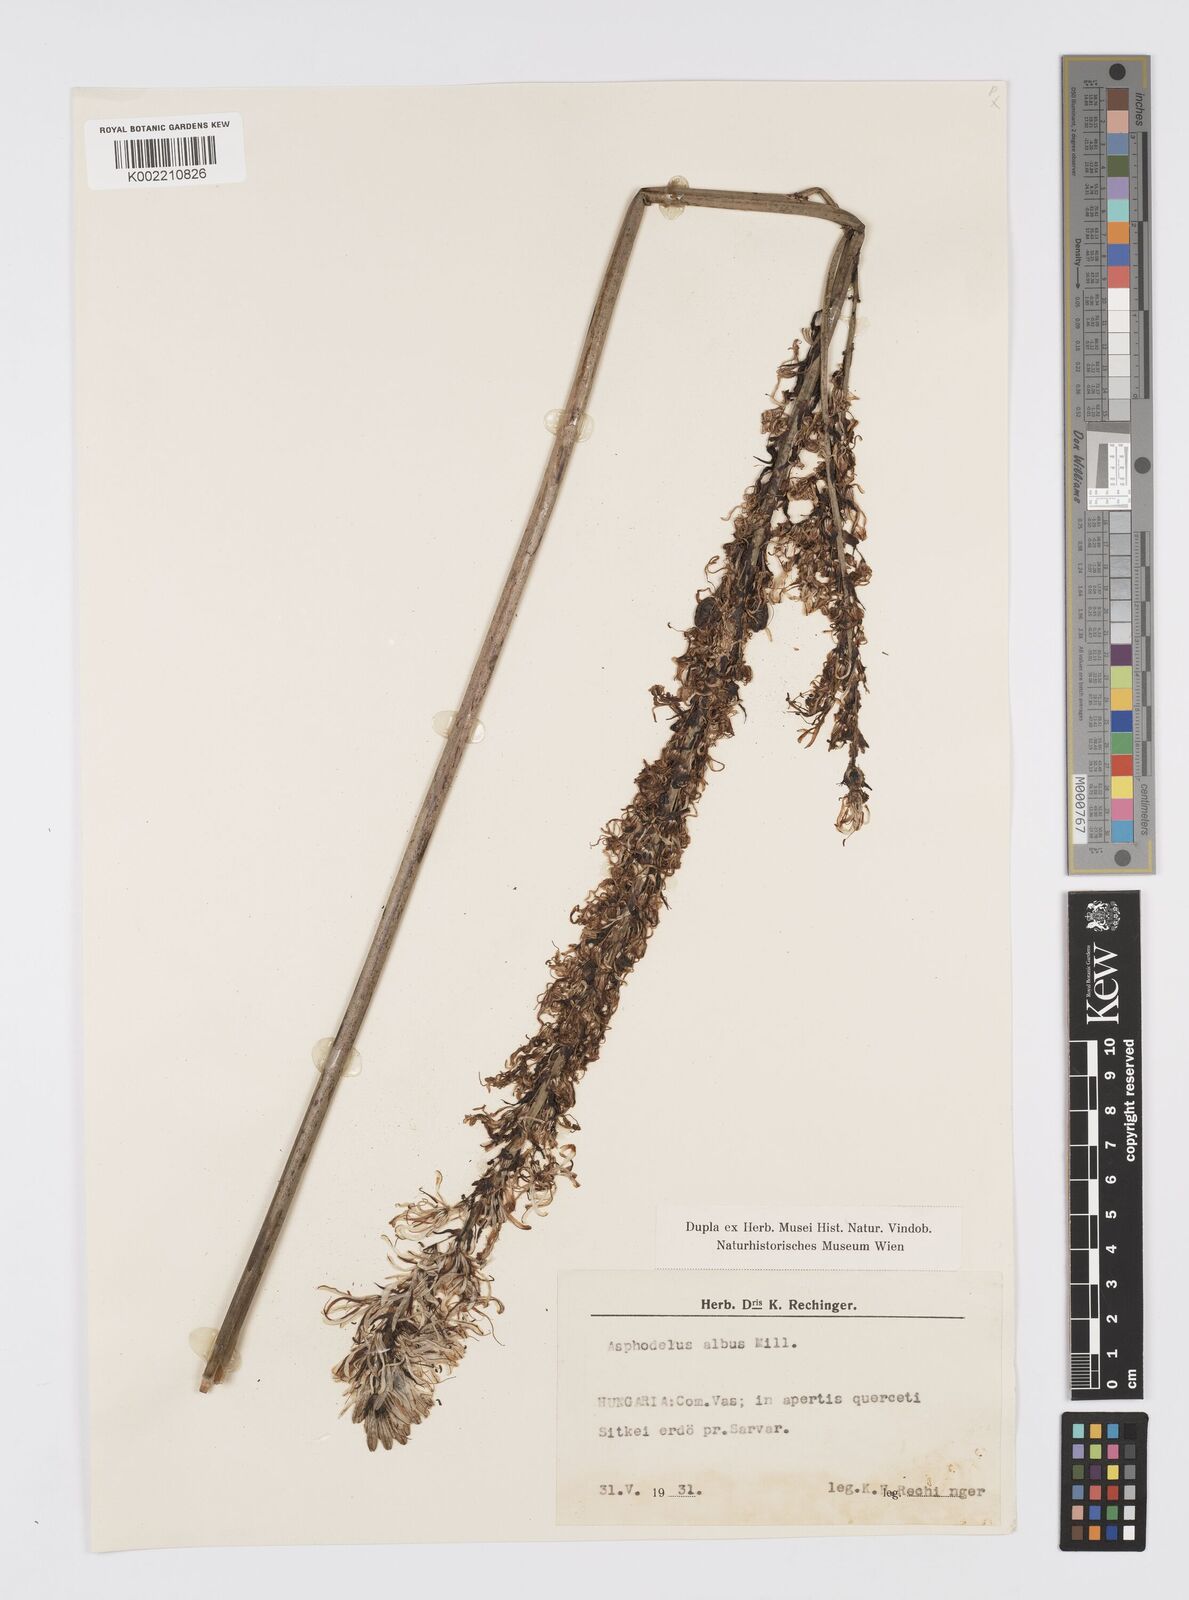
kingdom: Plantae
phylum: Tracheophyta
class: Liliopsida
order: Asparagales
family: Asphodelaceae
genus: Asphodelus
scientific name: Asphodelus albus
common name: White asphodel
